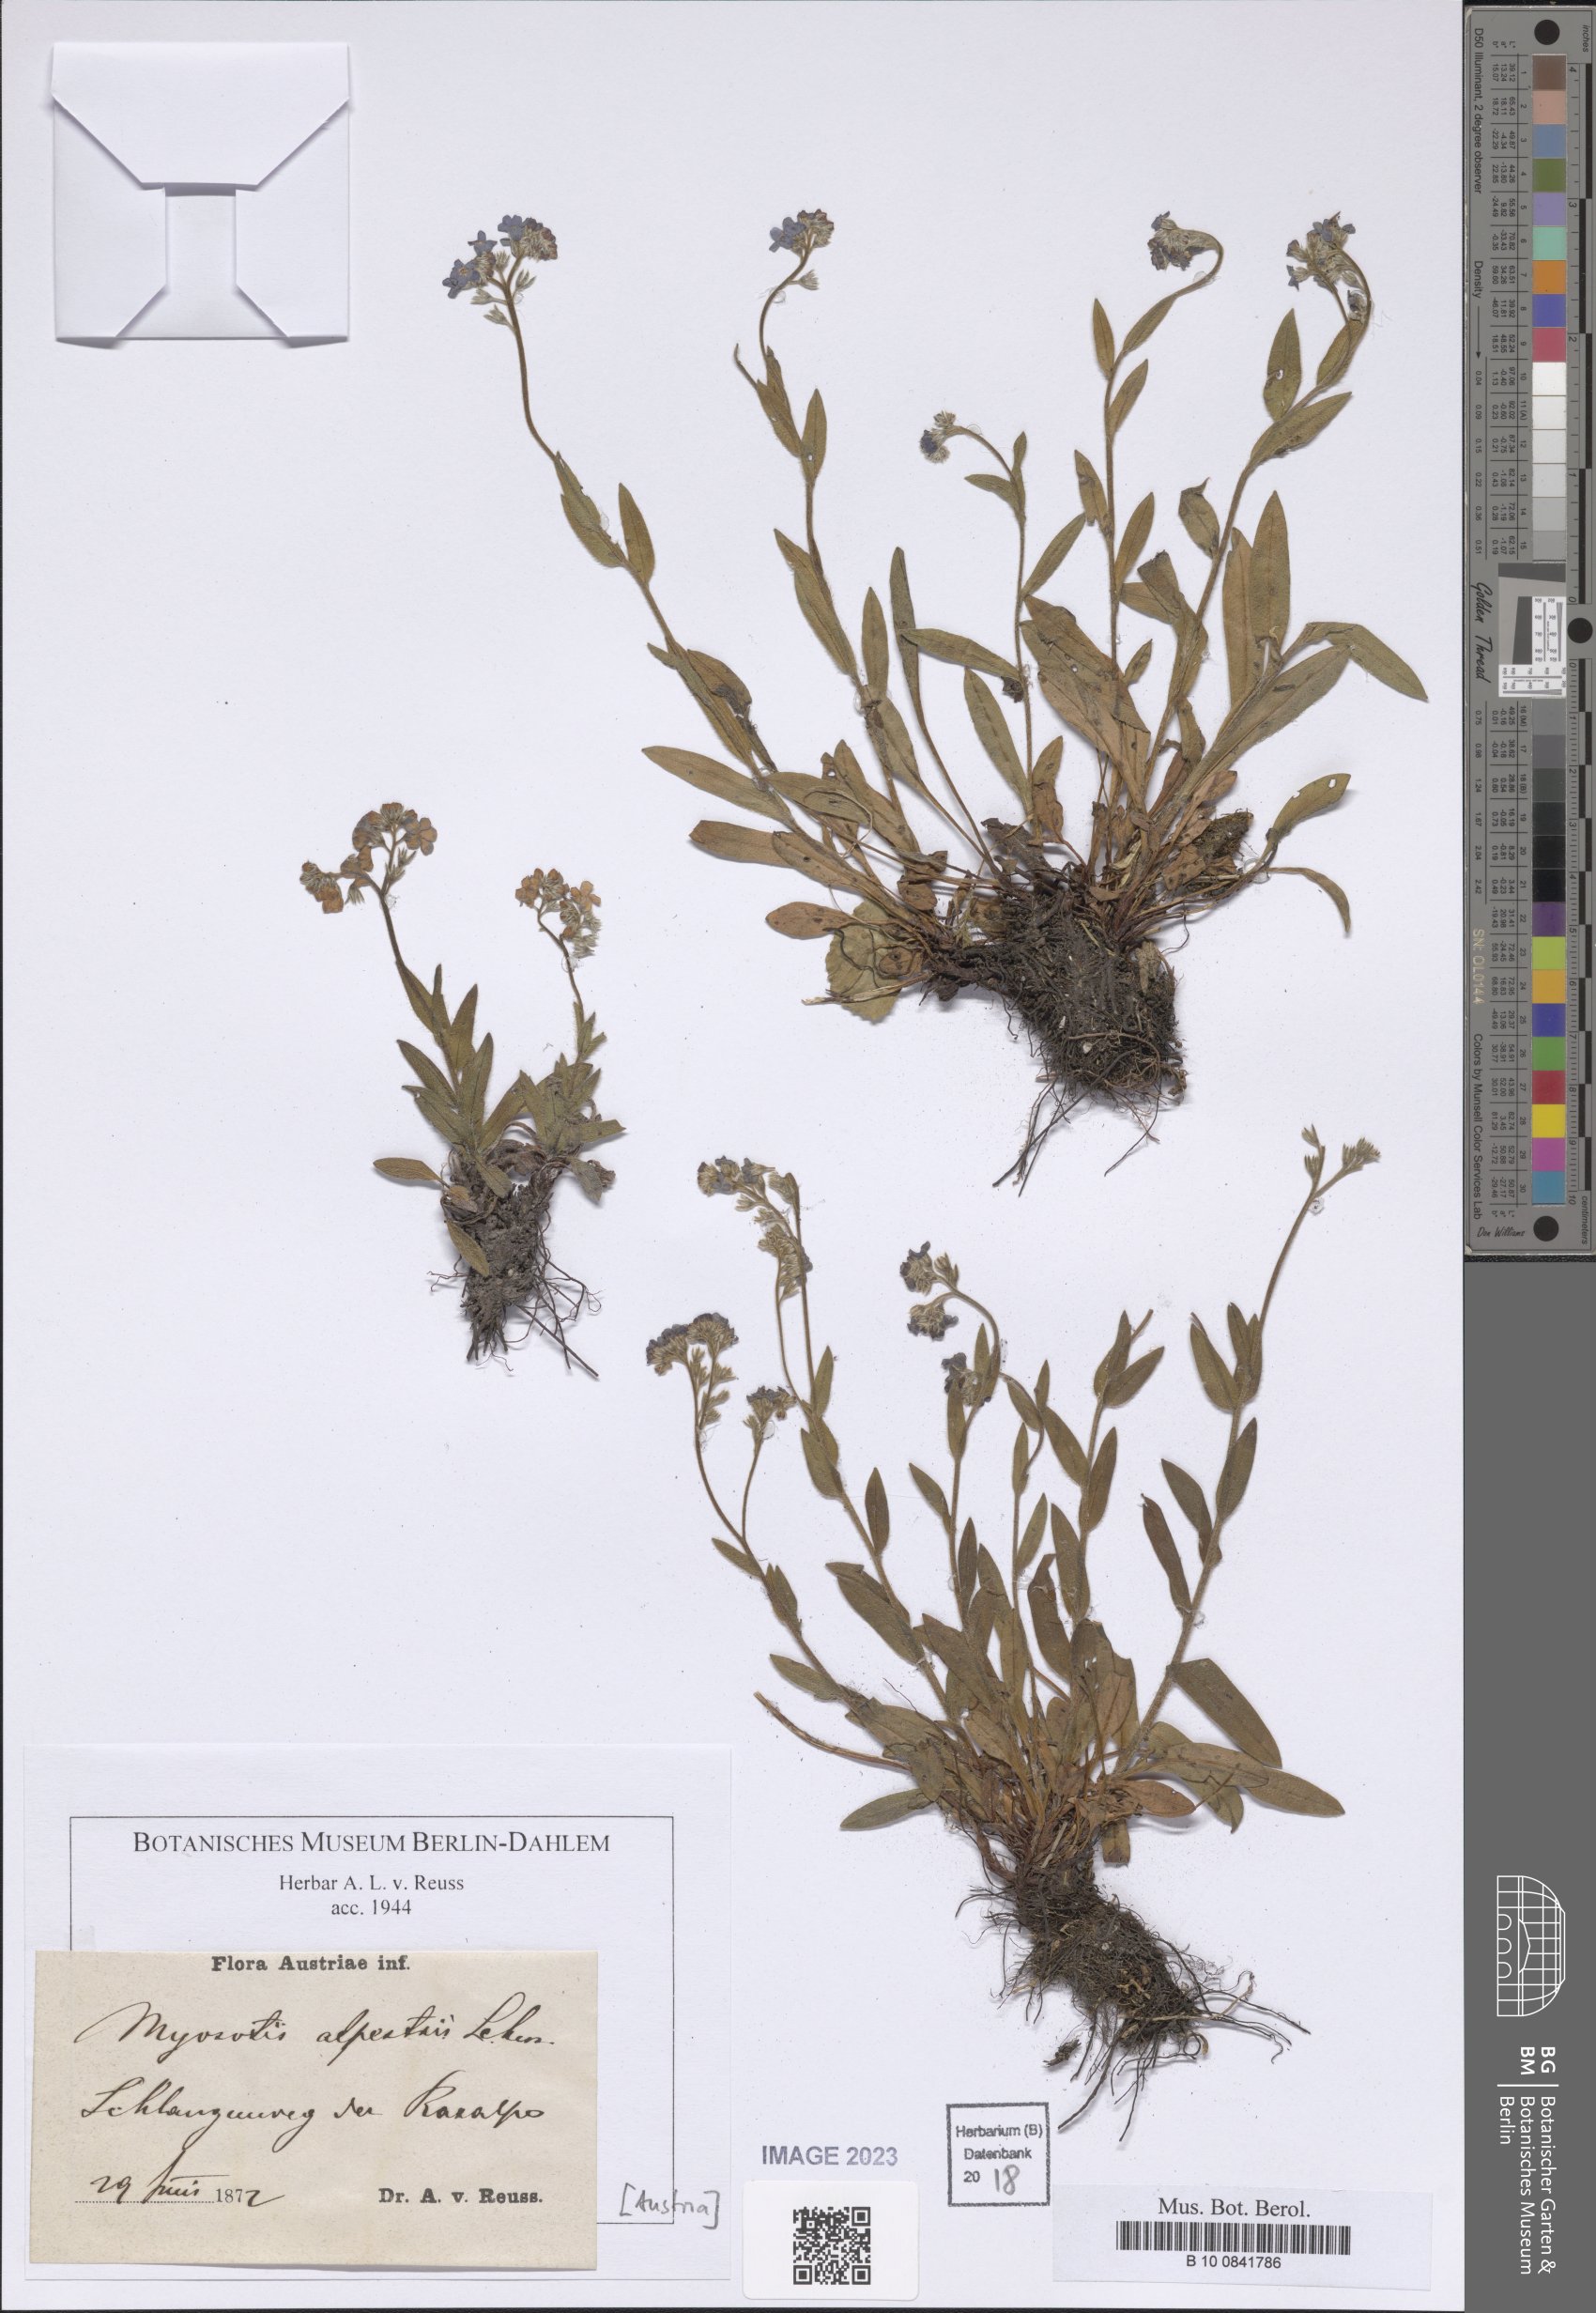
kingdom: Plantae
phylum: Tracheophyta
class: Magnoliopsida
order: Boraginales
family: Boraginaceae
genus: Myosotis
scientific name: Myosotis alpestris
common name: Alpine forget-me-not
